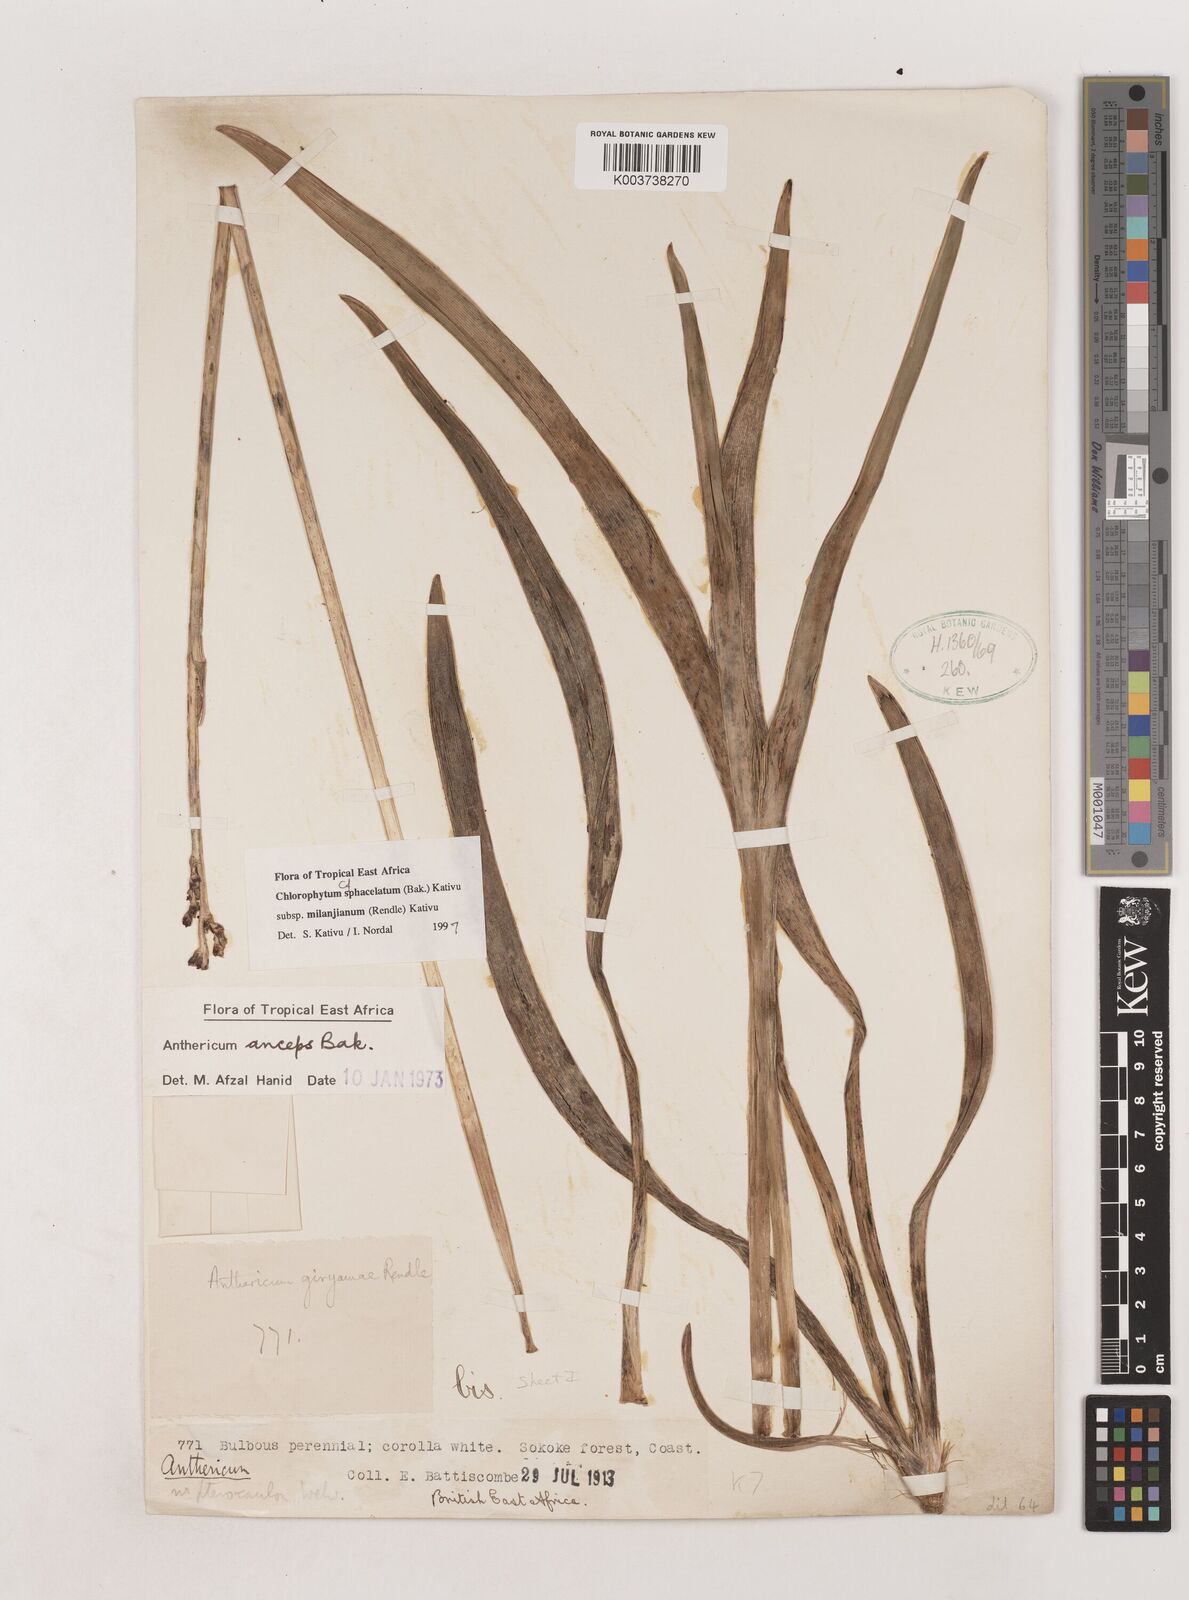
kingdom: Plantae
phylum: Tracheophyta
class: Liliopsida
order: Asparagales
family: Asparagaceae
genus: Chlorophytum
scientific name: Chlorophytum sphacelatum
